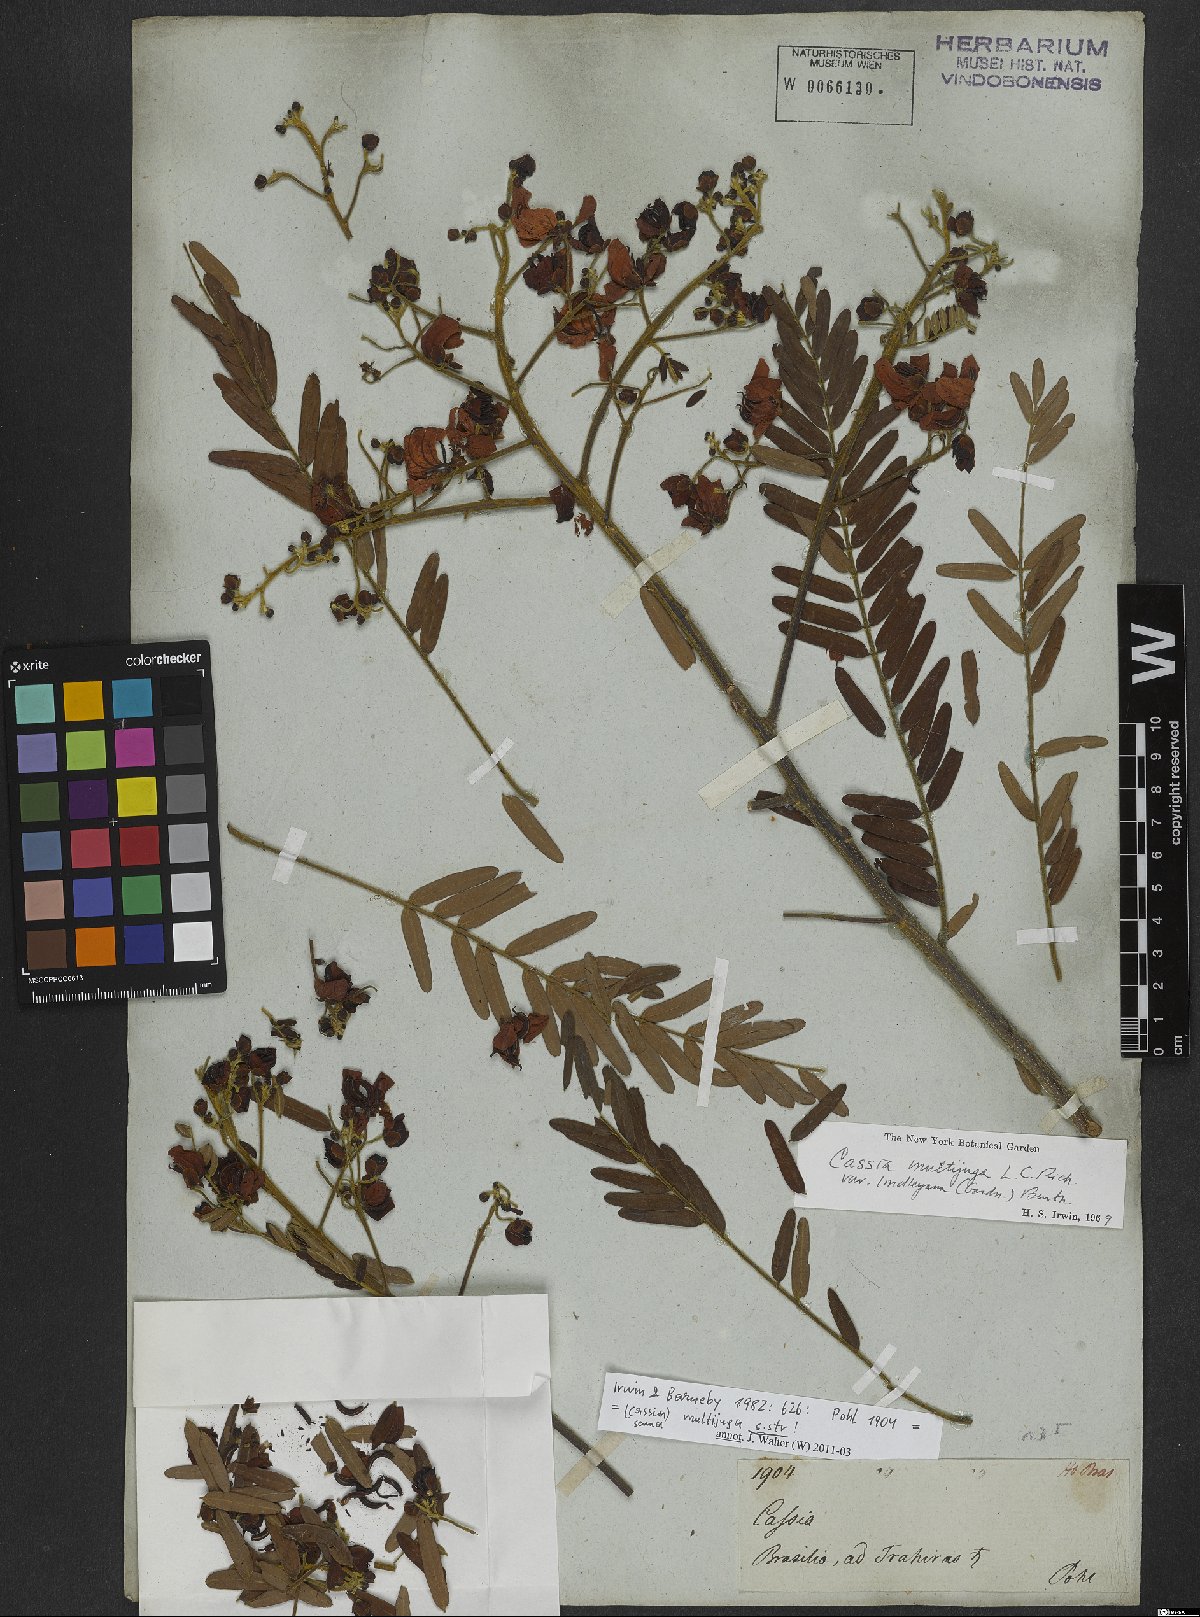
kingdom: Plantae
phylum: Tracheophyta
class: Magnoliopsida
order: Fabales
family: Fabaceae
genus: Senna
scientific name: Senna multijuga
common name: False sicklepod
